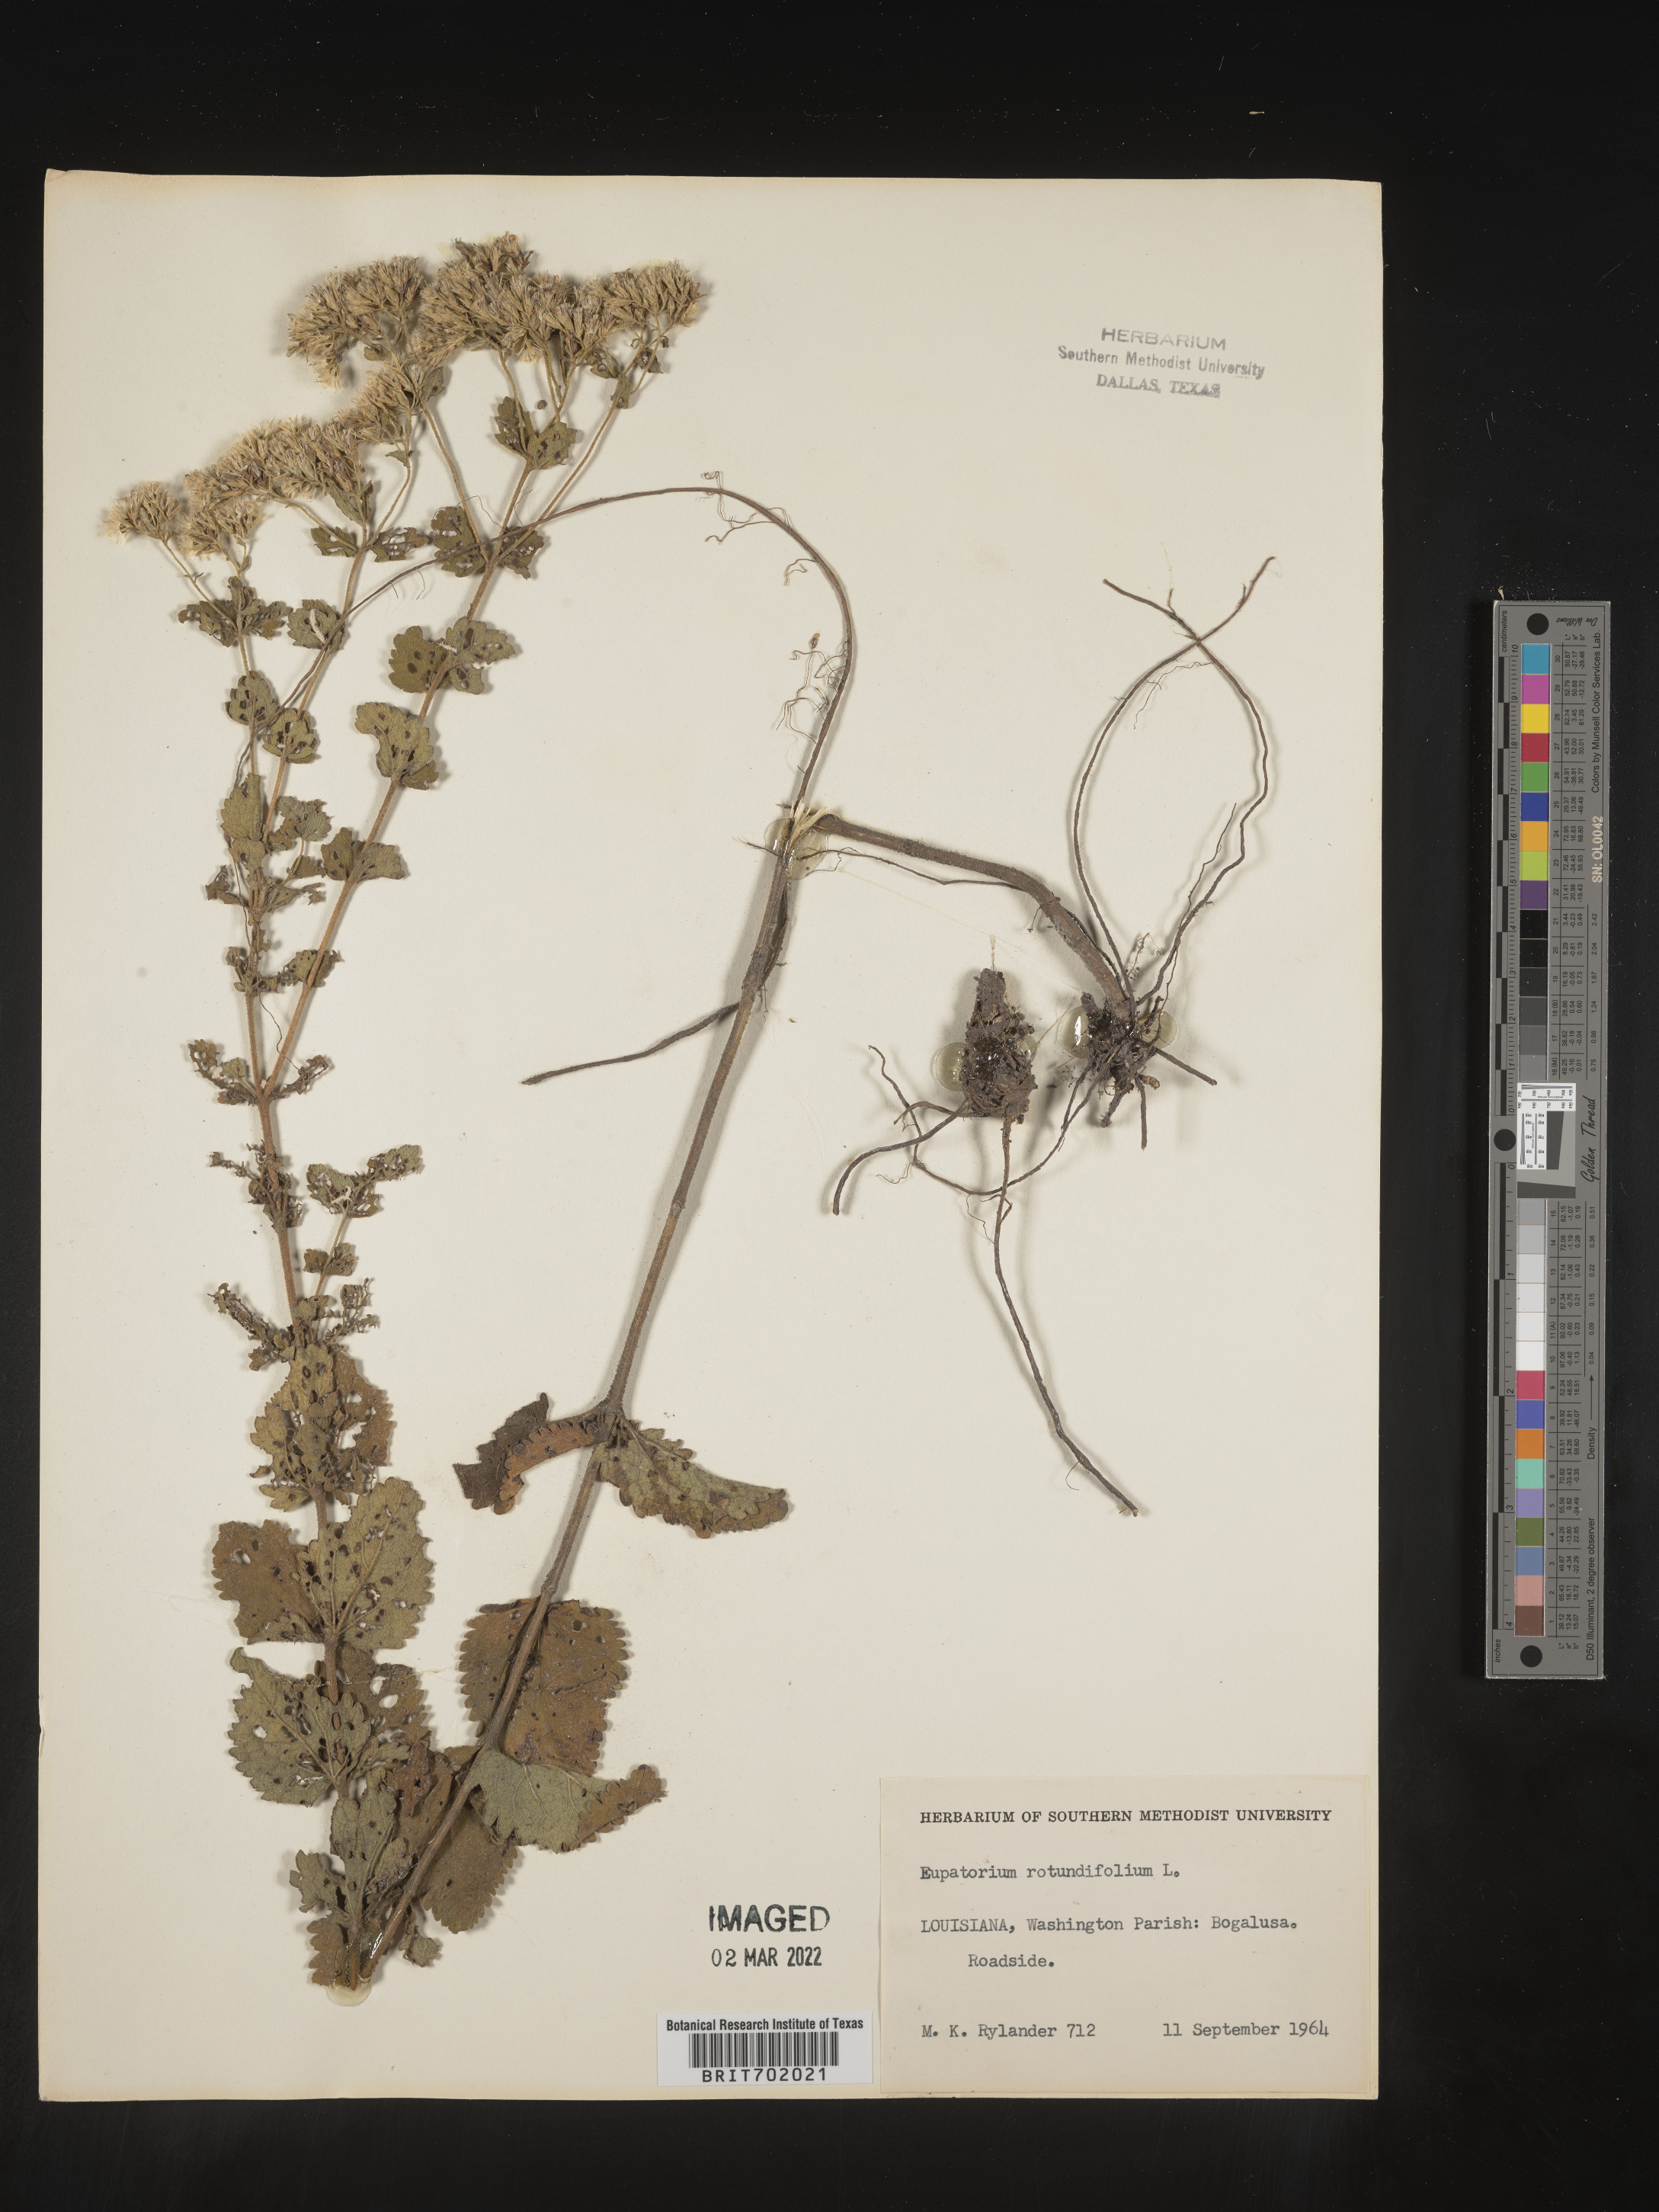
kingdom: Plantae
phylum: Tracheophyta
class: Magnoliopsida
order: Asterales
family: Asteraceae
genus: Eupatorium
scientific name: Eupatorium rotundifolium
